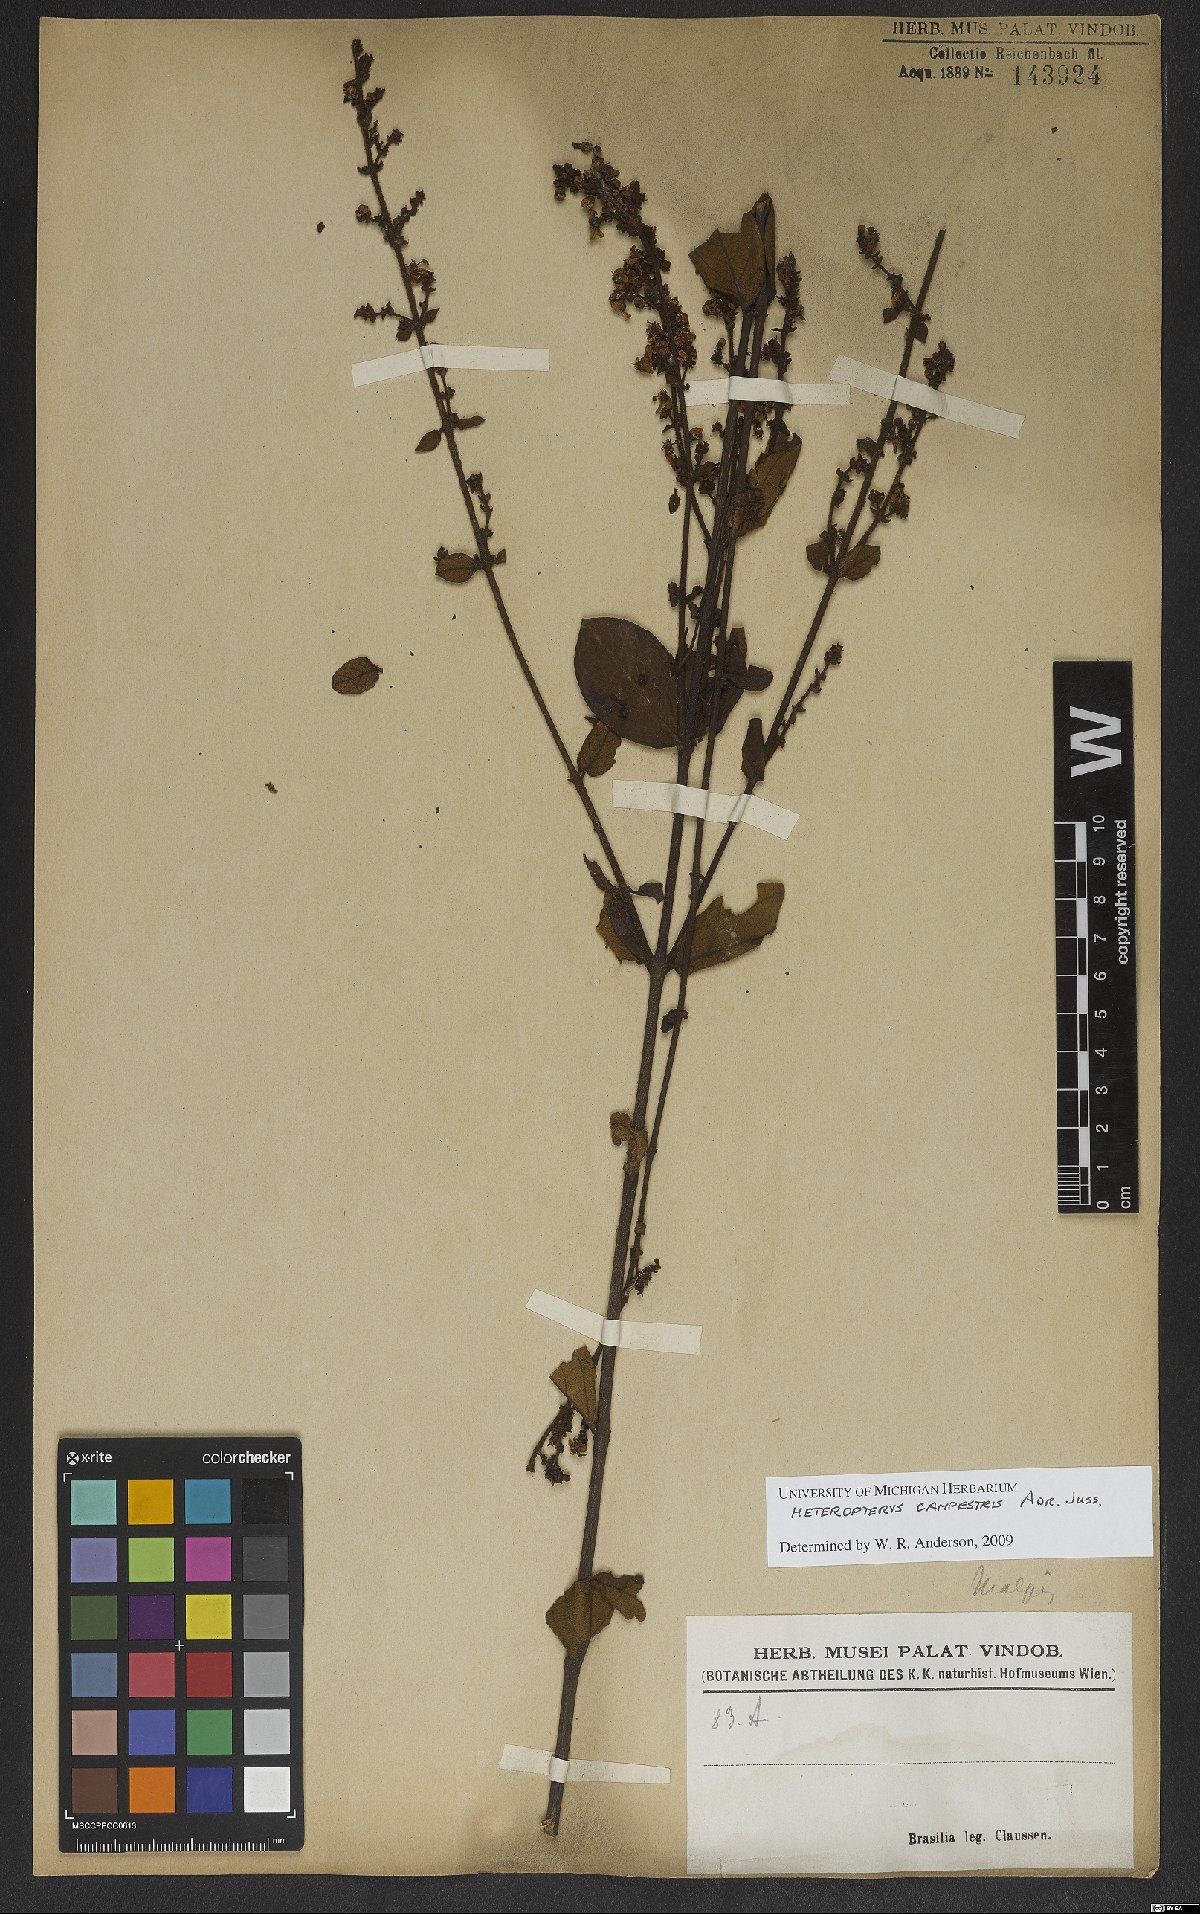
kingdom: Plantae
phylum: Tracheophyta
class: Magnoliopsida
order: Malpighiales
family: Malpighiaceae
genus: Heteropterys
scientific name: Heteropterys campestris
